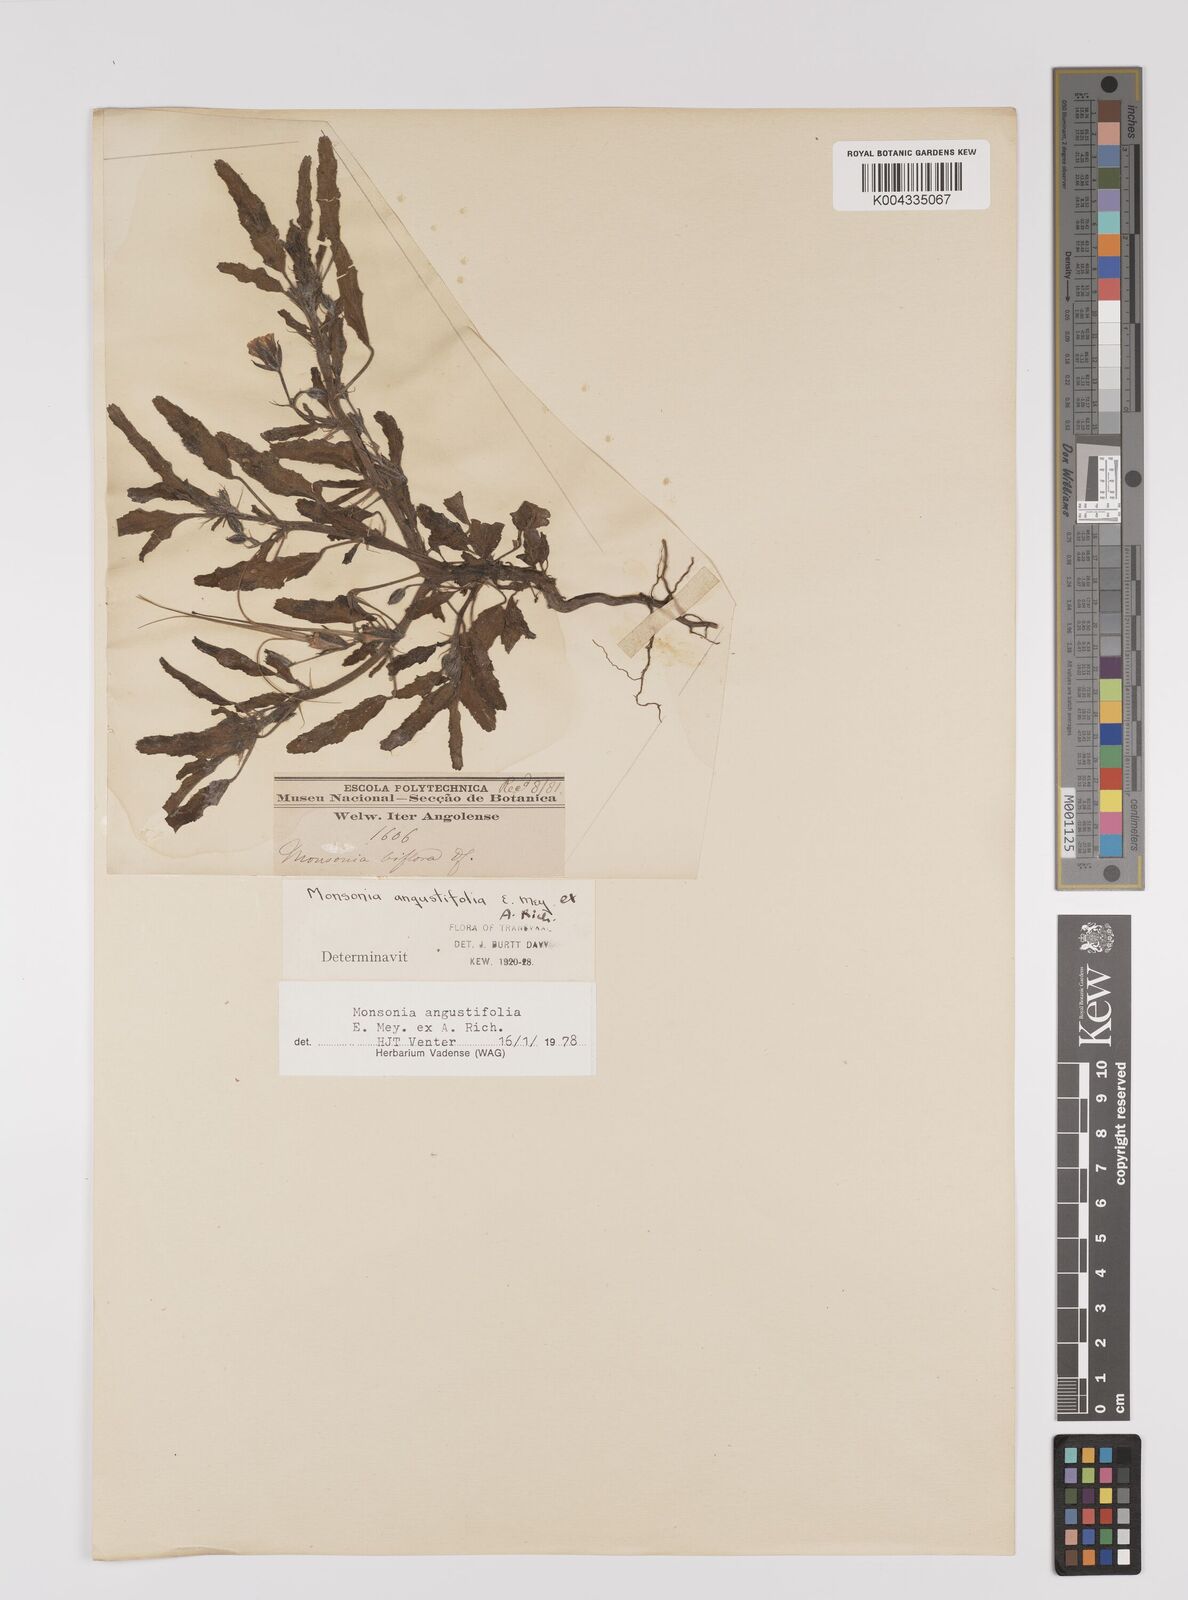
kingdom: Plantae
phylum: Tracheophyta
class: Magnoliopsida
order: Geraniales
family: Geraniaceae
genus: Monsonia
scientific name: Monsonia angustifolia
